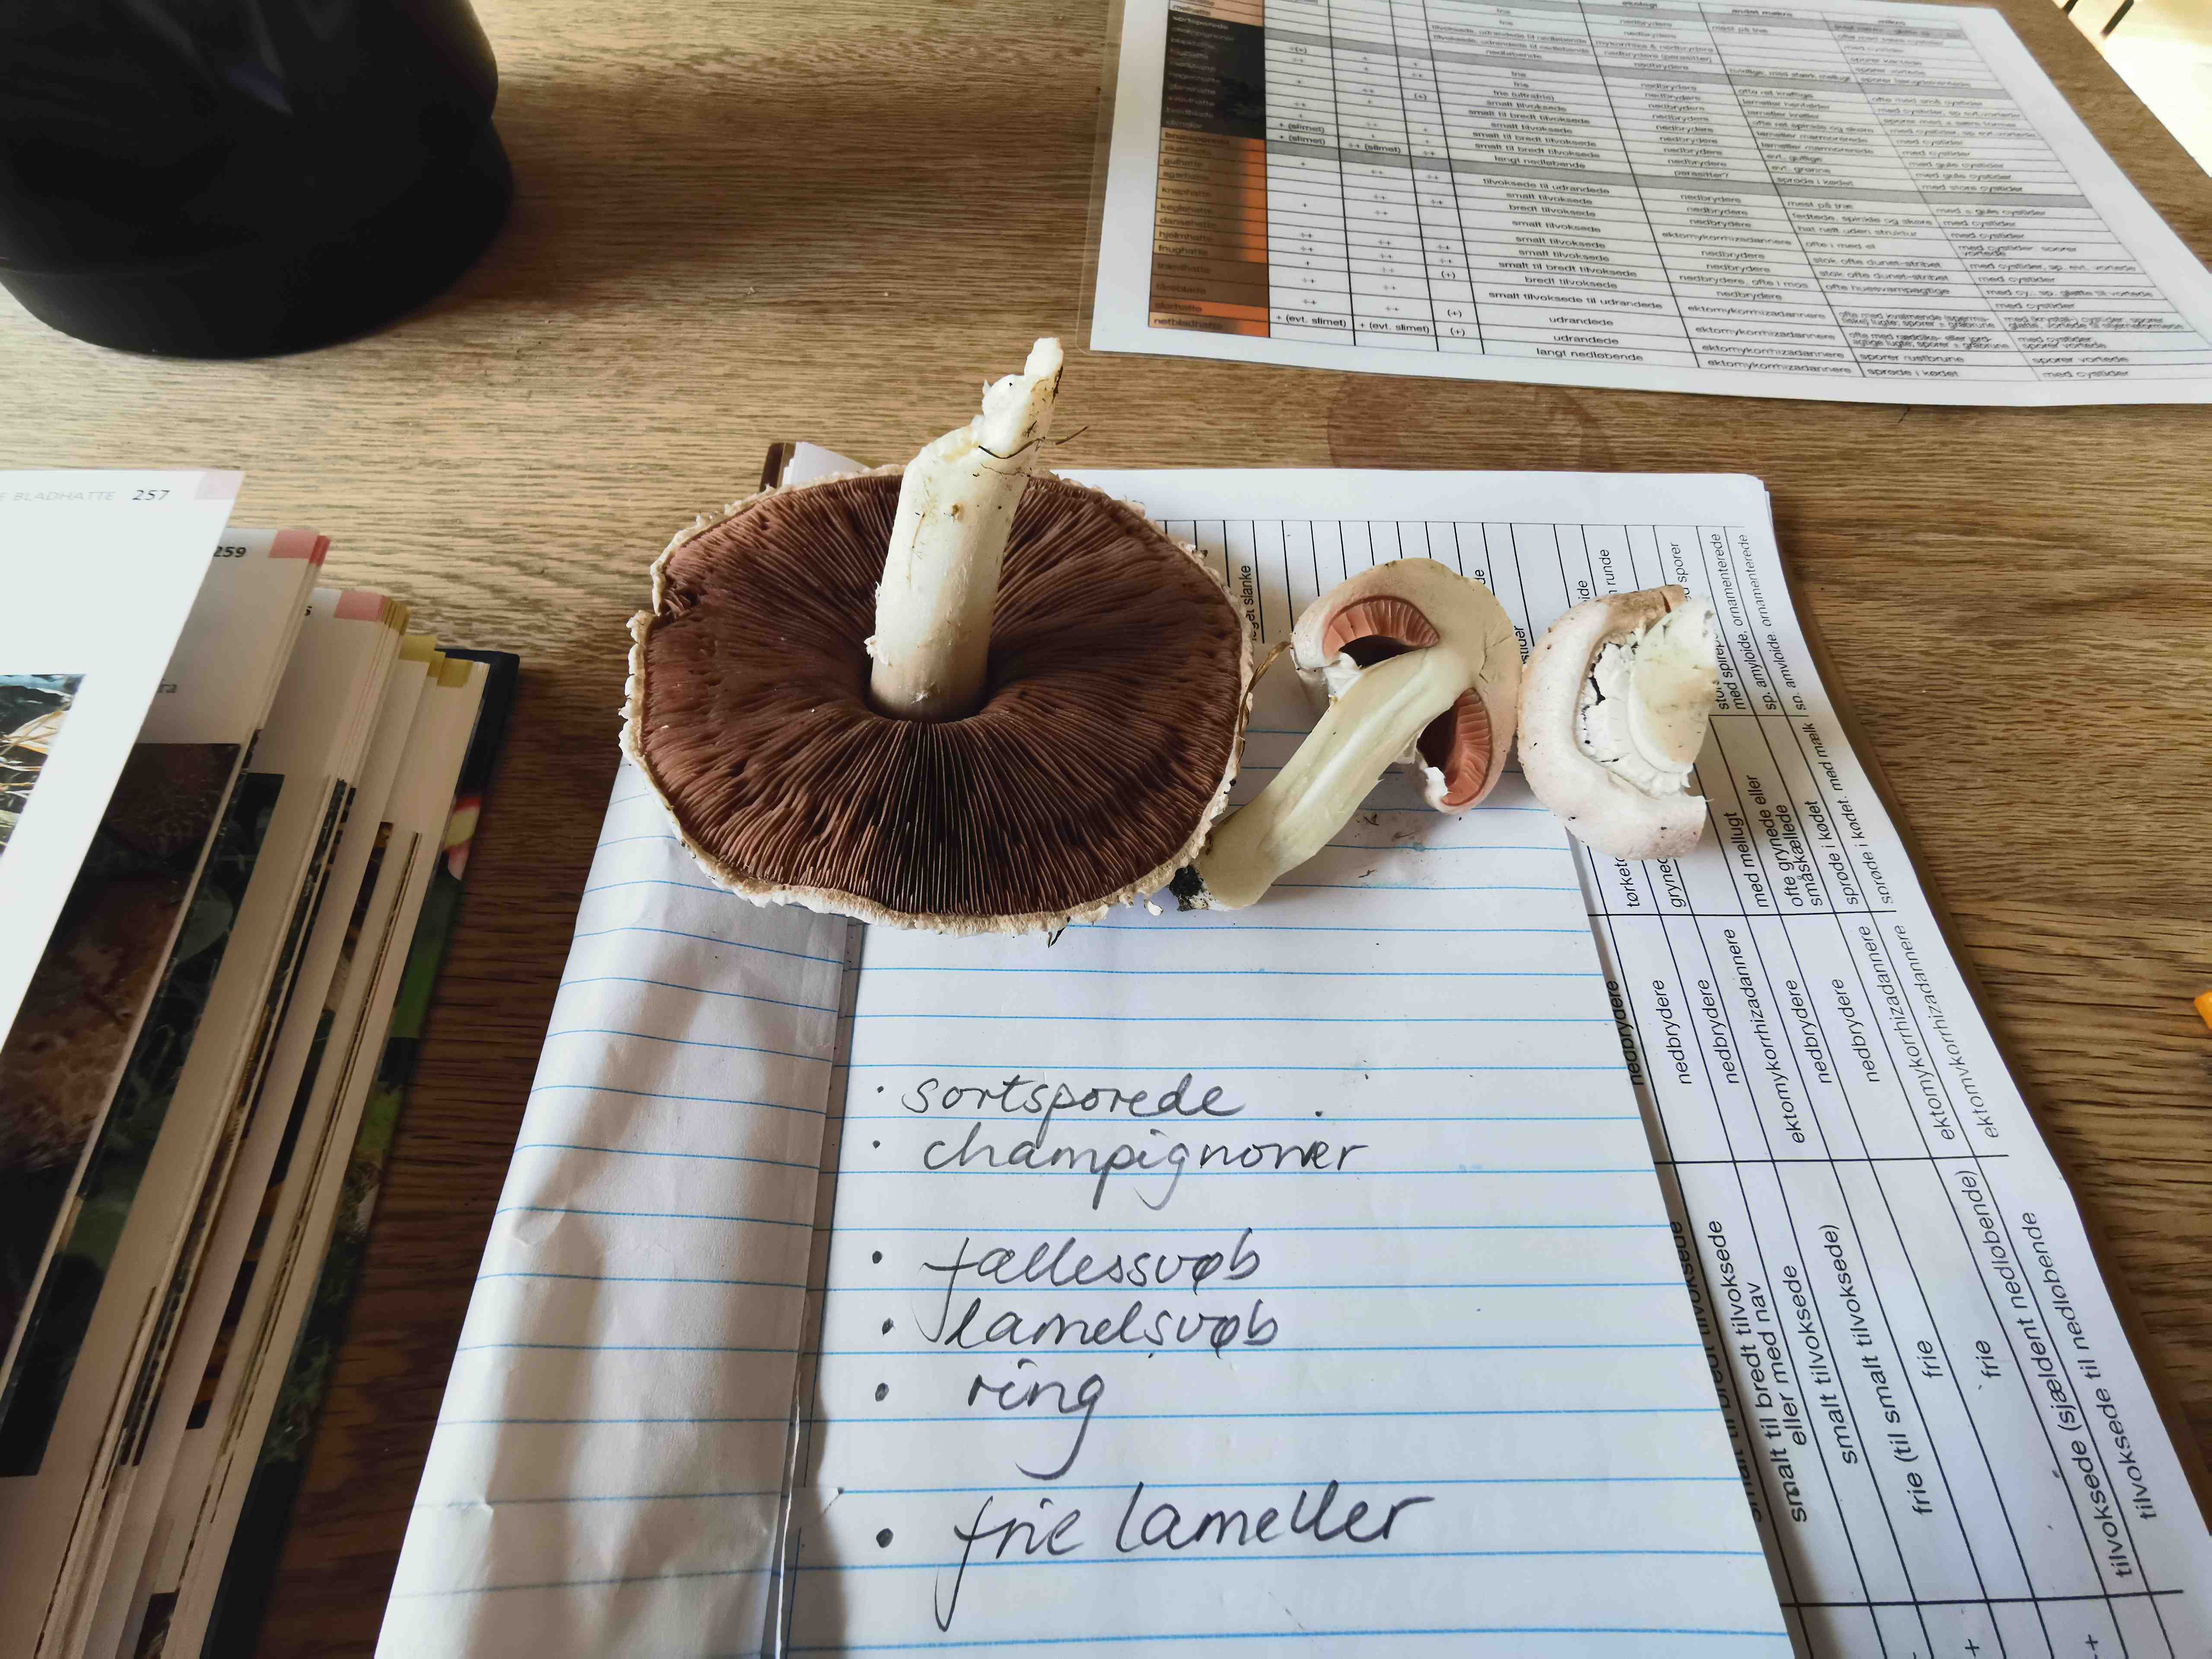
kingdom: Fungi
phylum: Basidiomycota
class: Agaricomycetes
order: Agaricales
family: Agaricaceae
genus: Agaricus
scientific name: Agaricus
